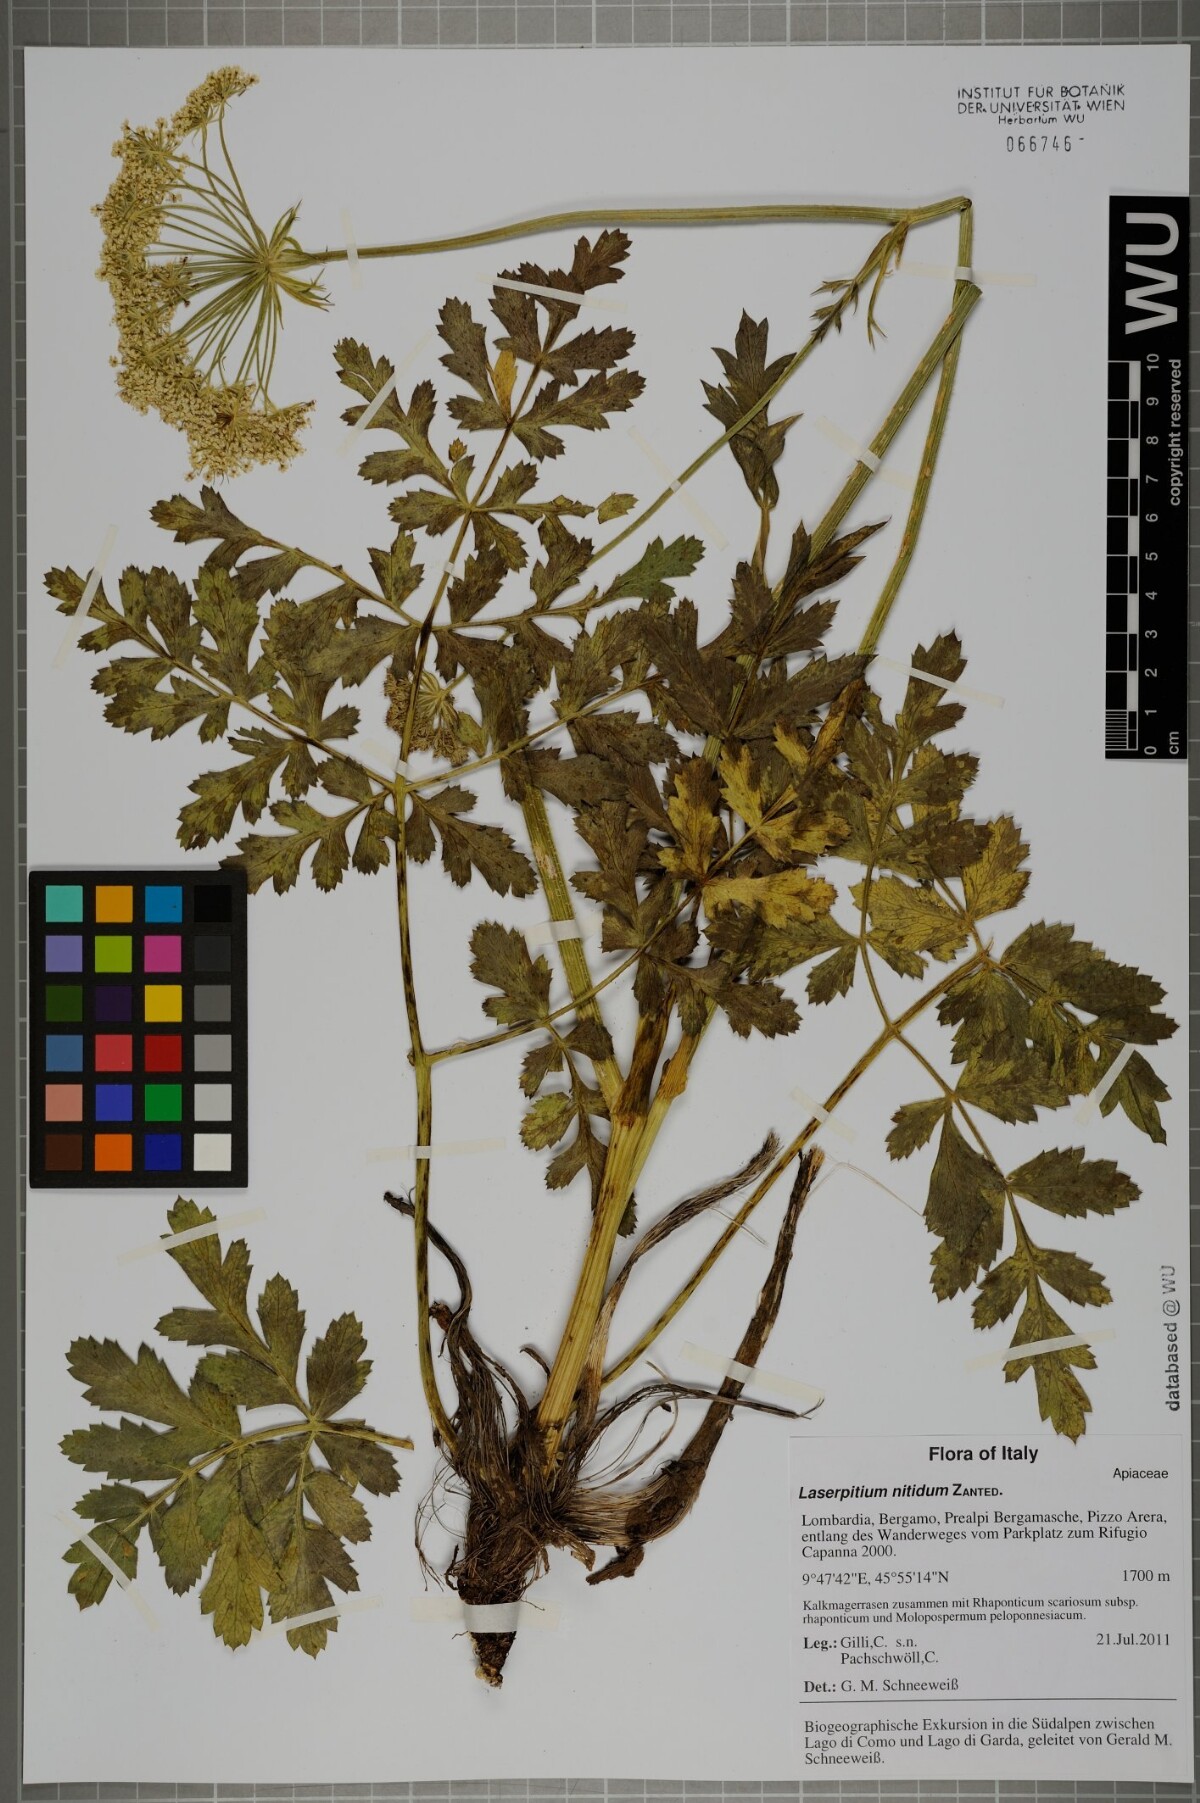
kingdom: Plantae
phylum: Tracheophyta
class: Magnoliopsida
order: Apiales
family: Apiaceae
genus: Laserpitium
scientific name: Laserpitium nitidum
